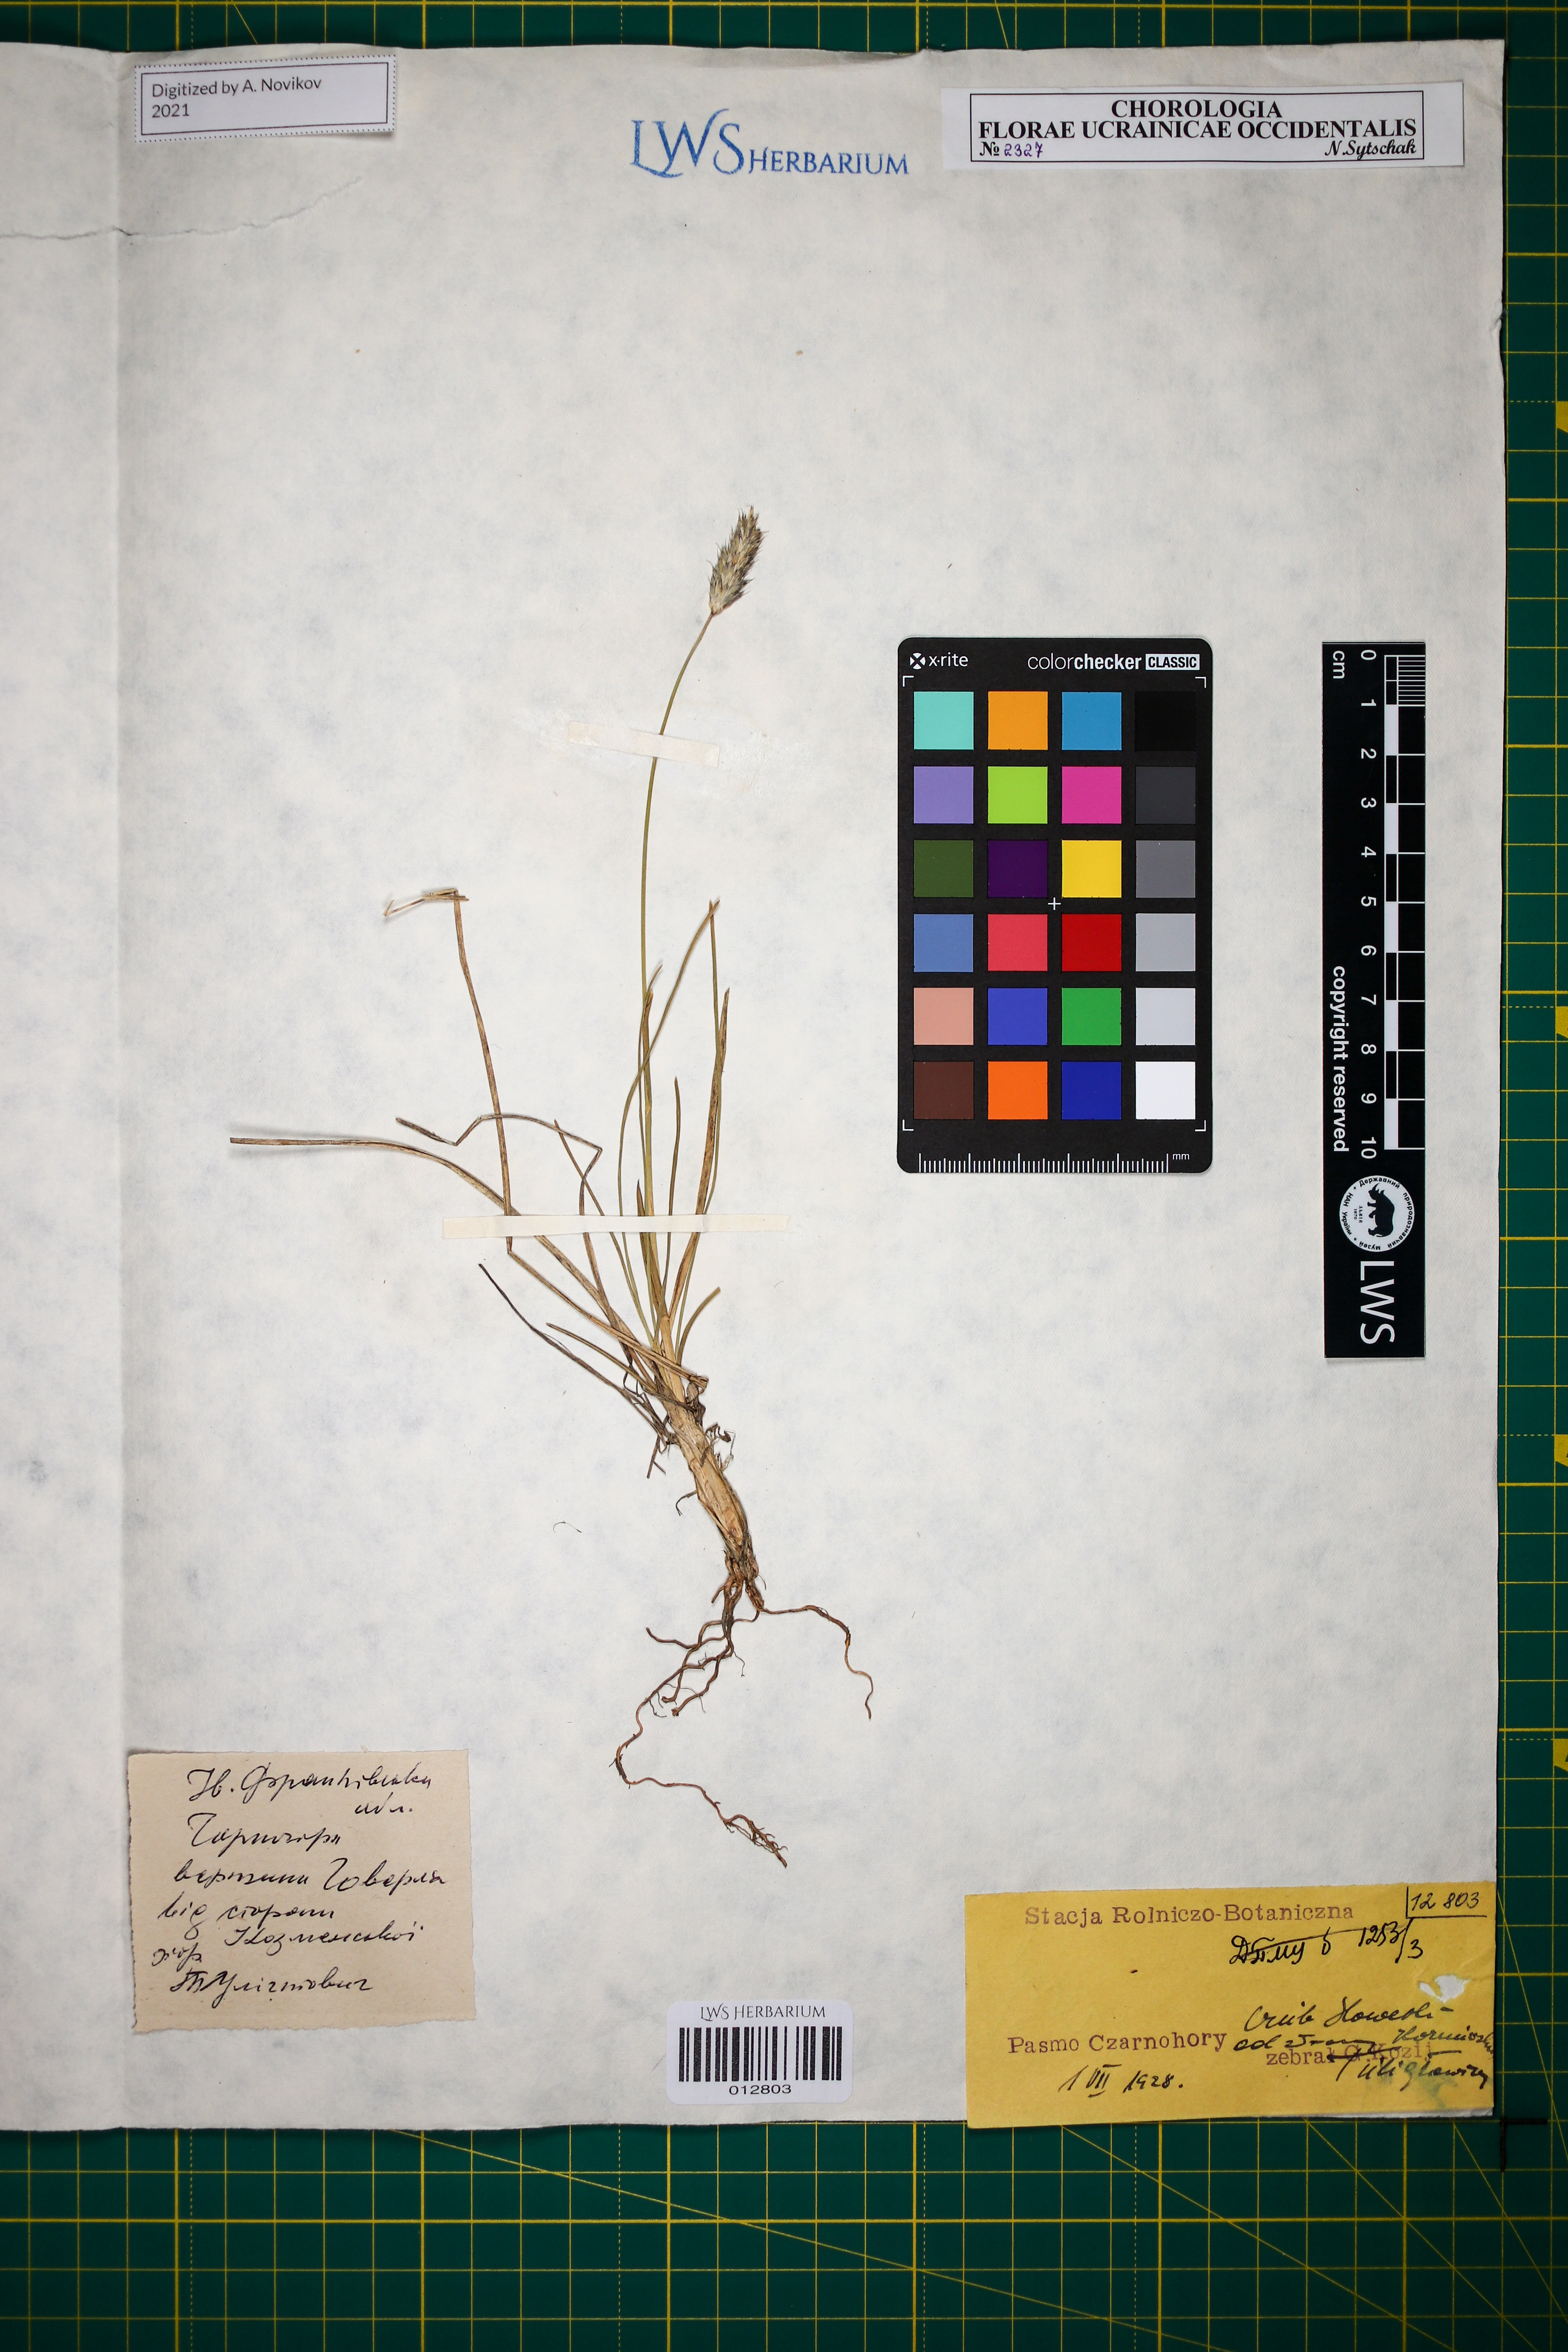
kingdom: Plantae
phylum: Tracheophyta
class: Liliopsida
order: Poales
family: Poaceae
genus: Sesleria
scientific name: Sesleria bielzii
